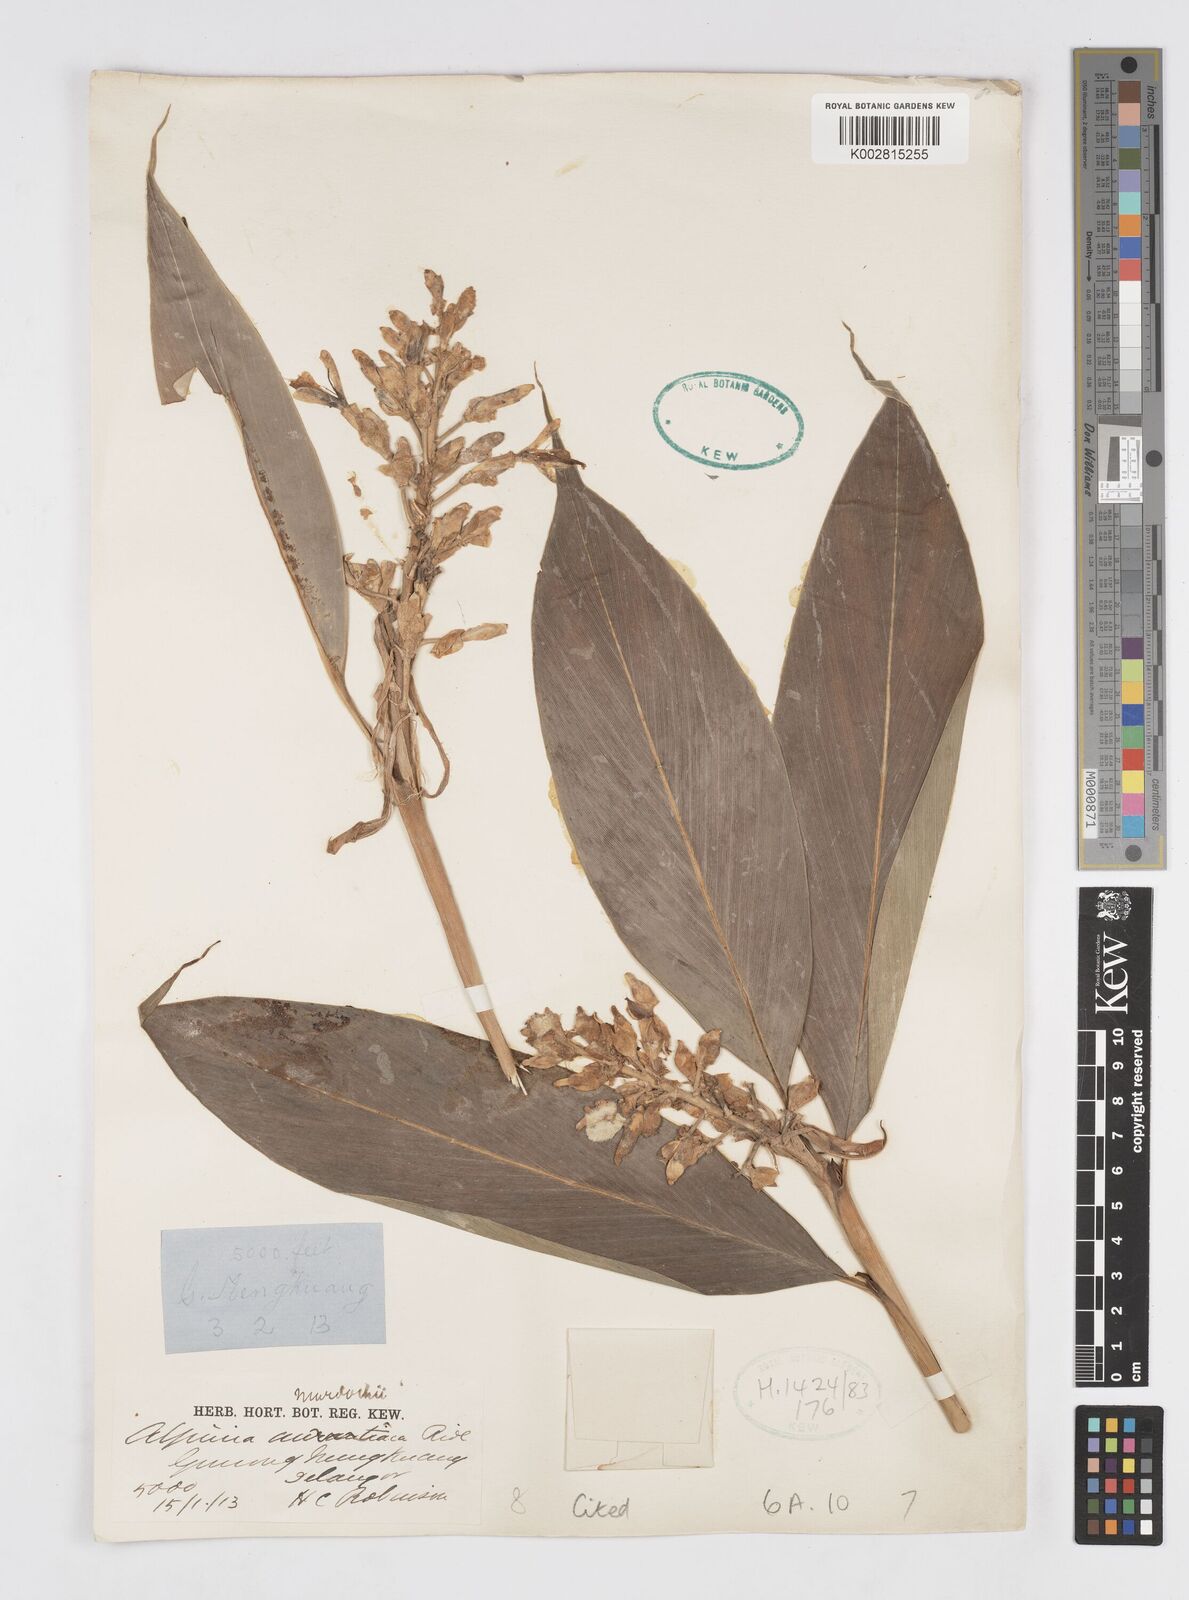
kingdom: Plantae
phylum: Tracheophyta
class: Liliopsida
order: Zingiberales
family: Zingiberaceae
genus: Alpinia
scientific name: Alpinia murdochii
